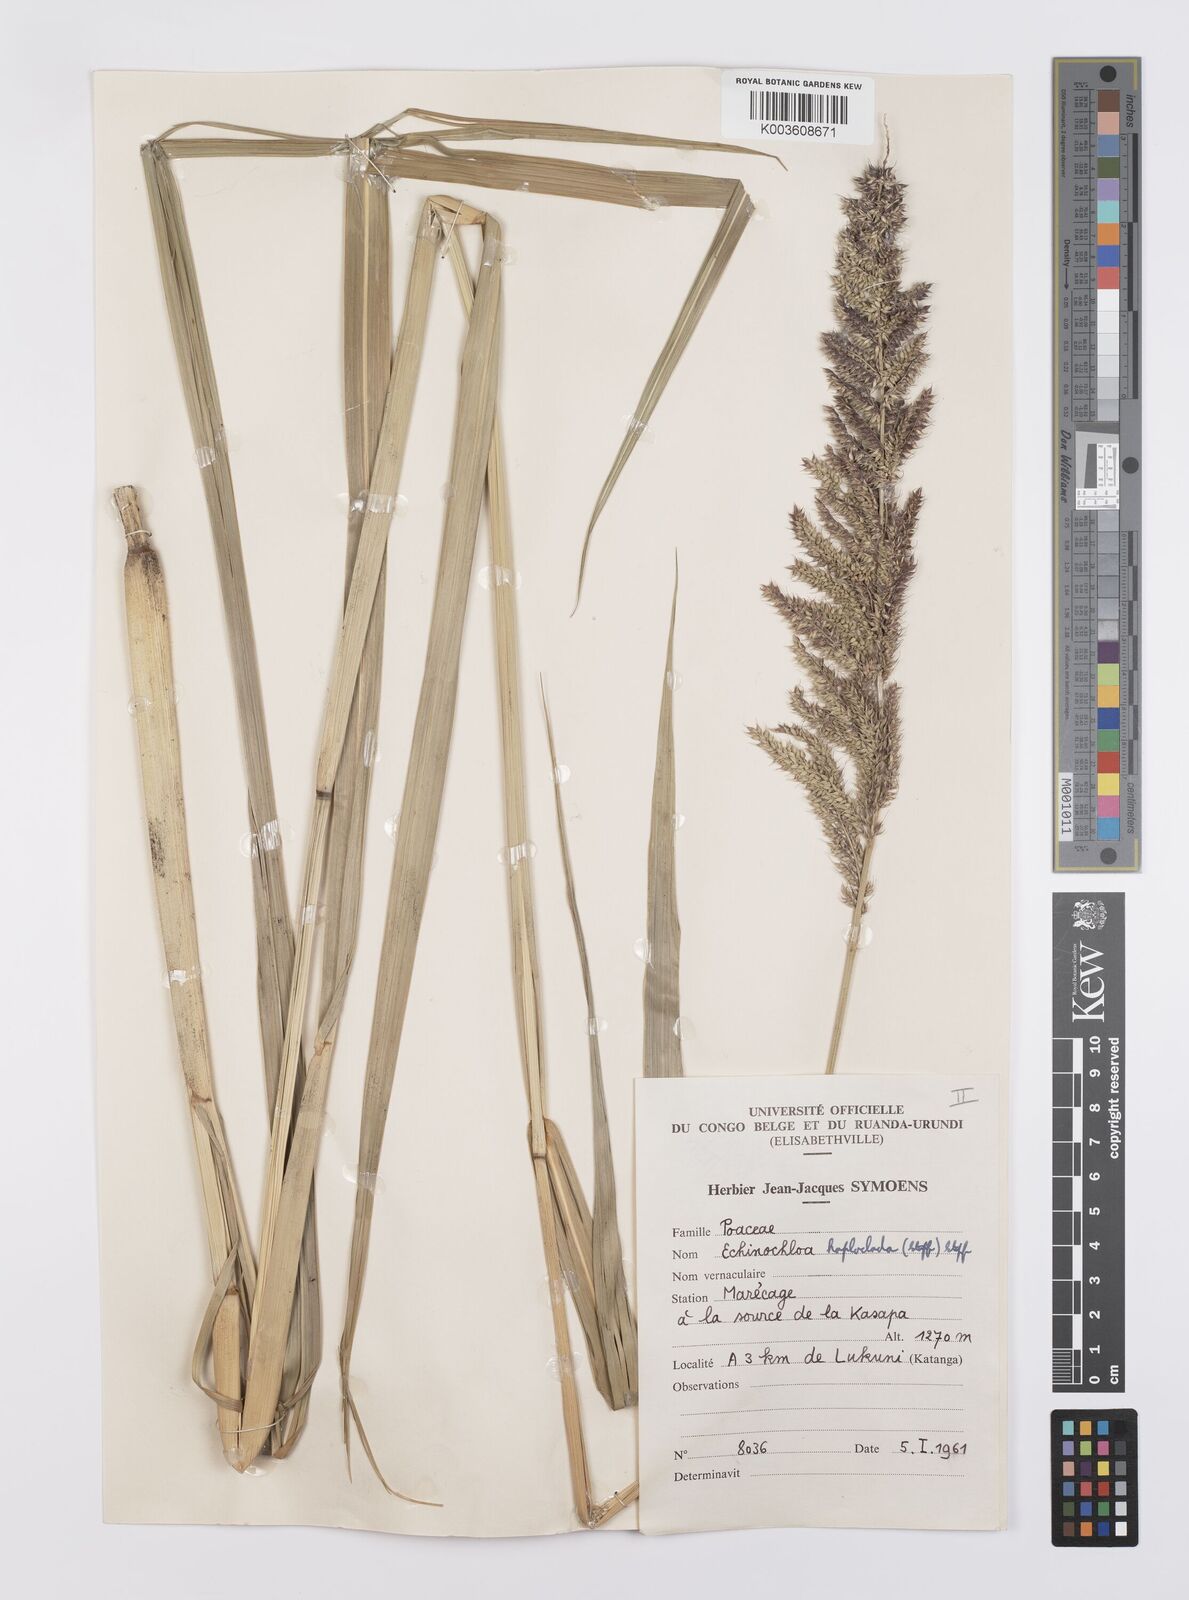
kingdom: Plantae
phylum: Tracheophyta
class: Liliopsida
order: Poales
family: Poaceae
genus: Echinochloa
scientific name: Echinochloa haploclada
